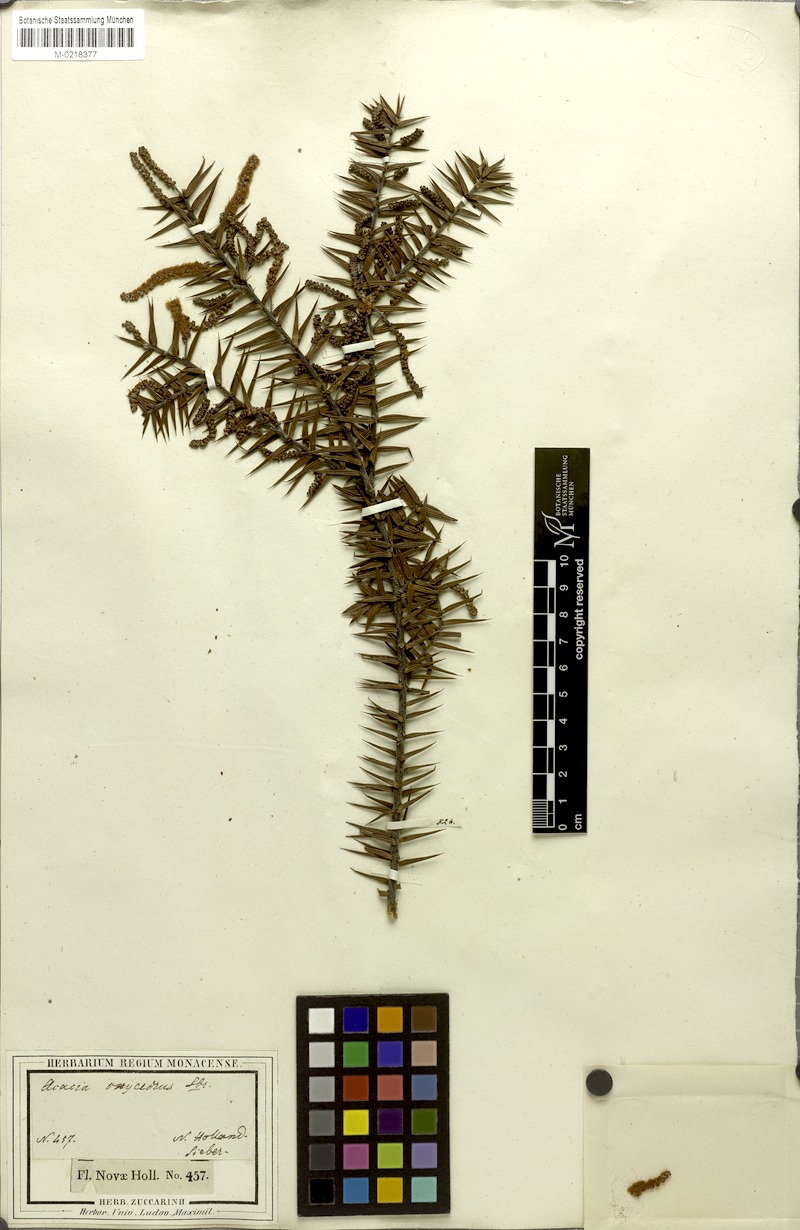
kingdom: Plantae
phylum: Tracheophyta
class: Magnoliopsida
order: Fabales
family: Fabaceae
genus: Acacia
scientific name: Acacia oxycedrus
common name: Spike wattle
